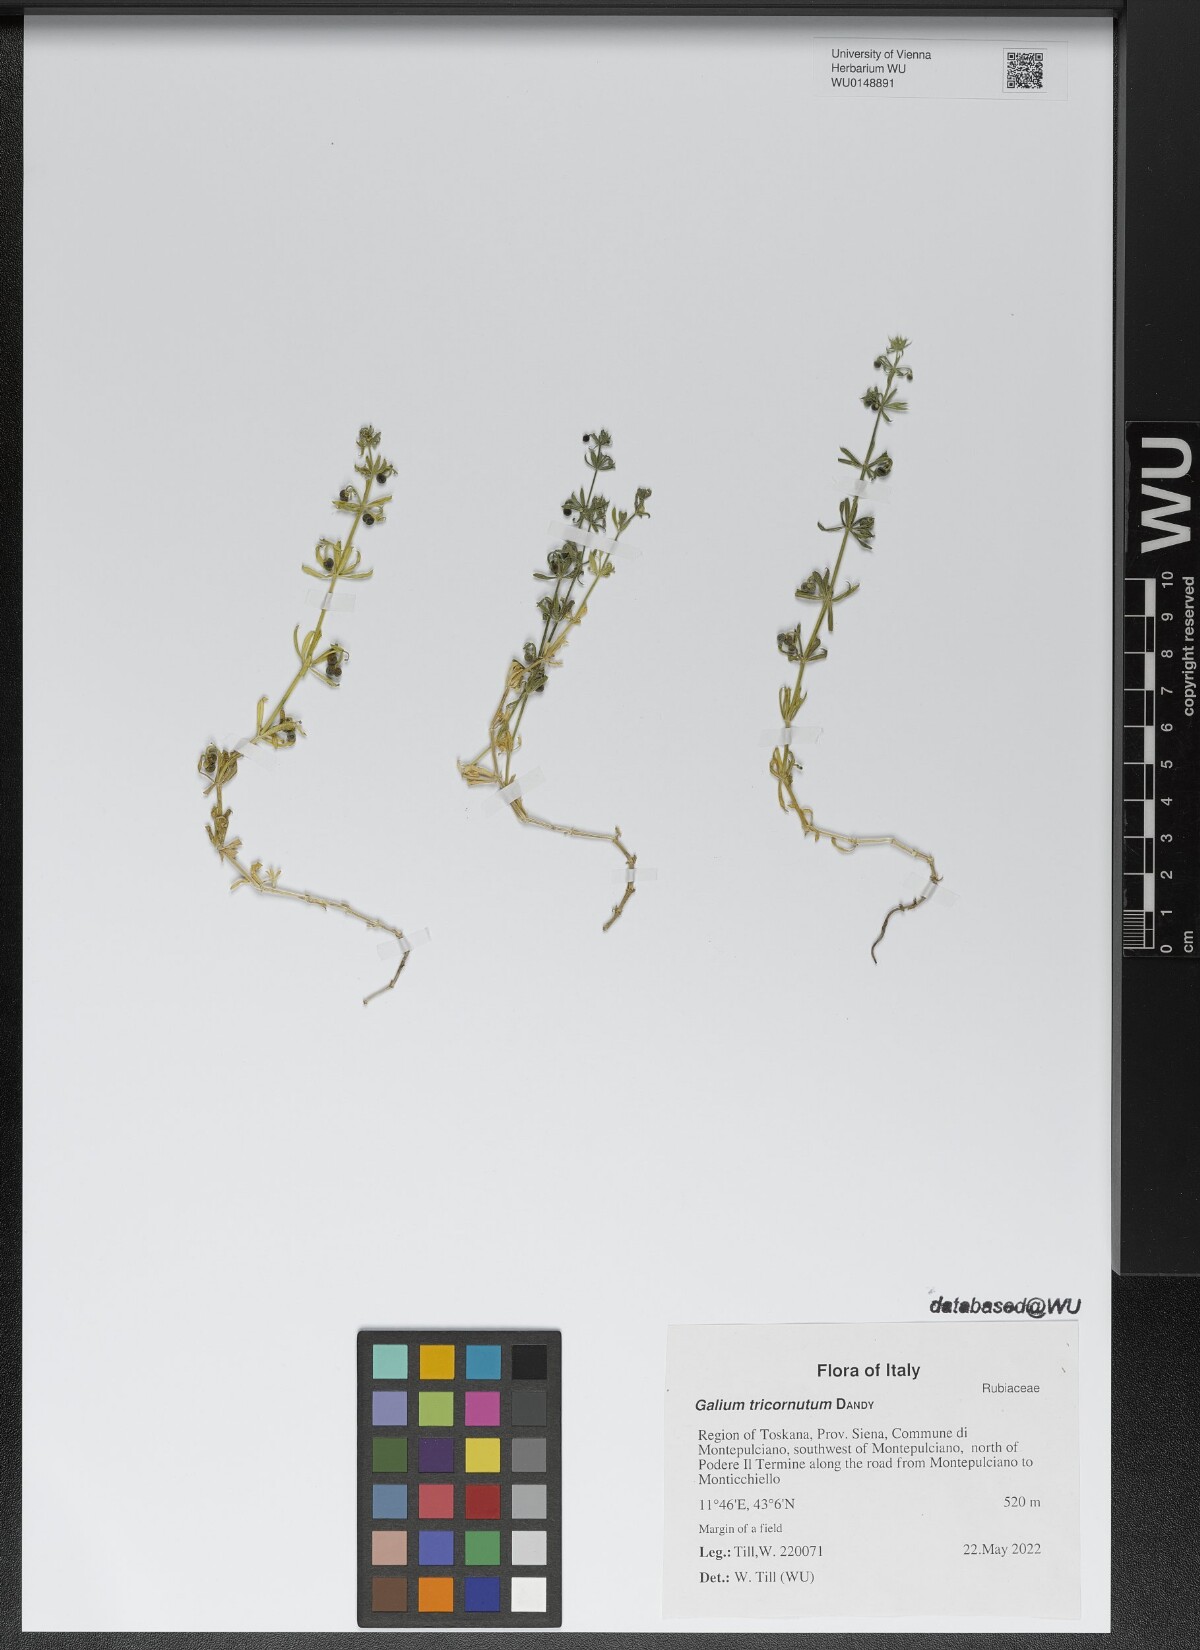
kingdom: Plantae
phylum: Tracheophyta
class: Magnoliopsida
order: Gentianales
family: Rubiaceae
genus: Galium
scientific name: Galium tricornutum
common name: Corn cleavers
